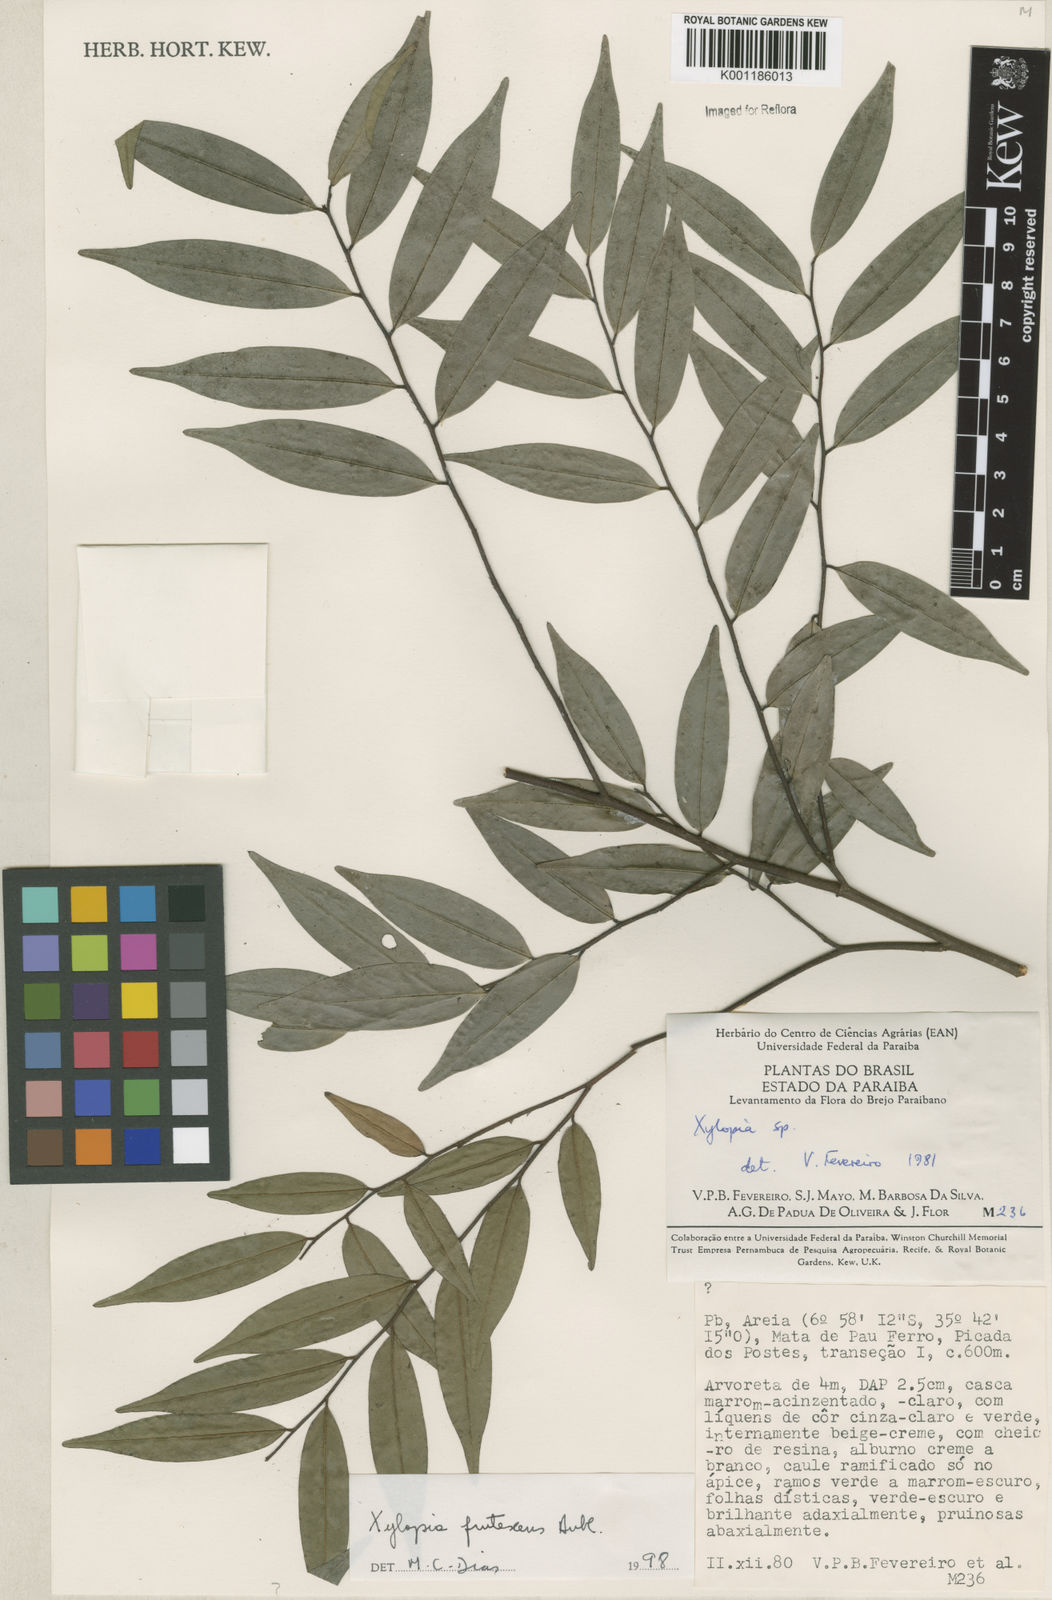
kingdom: Plantae
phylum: Tracheophyta
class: Magnoliopsida
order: Magnoliales
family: Annonaceae
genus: Xylopia
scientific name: Xylopia frutescens
